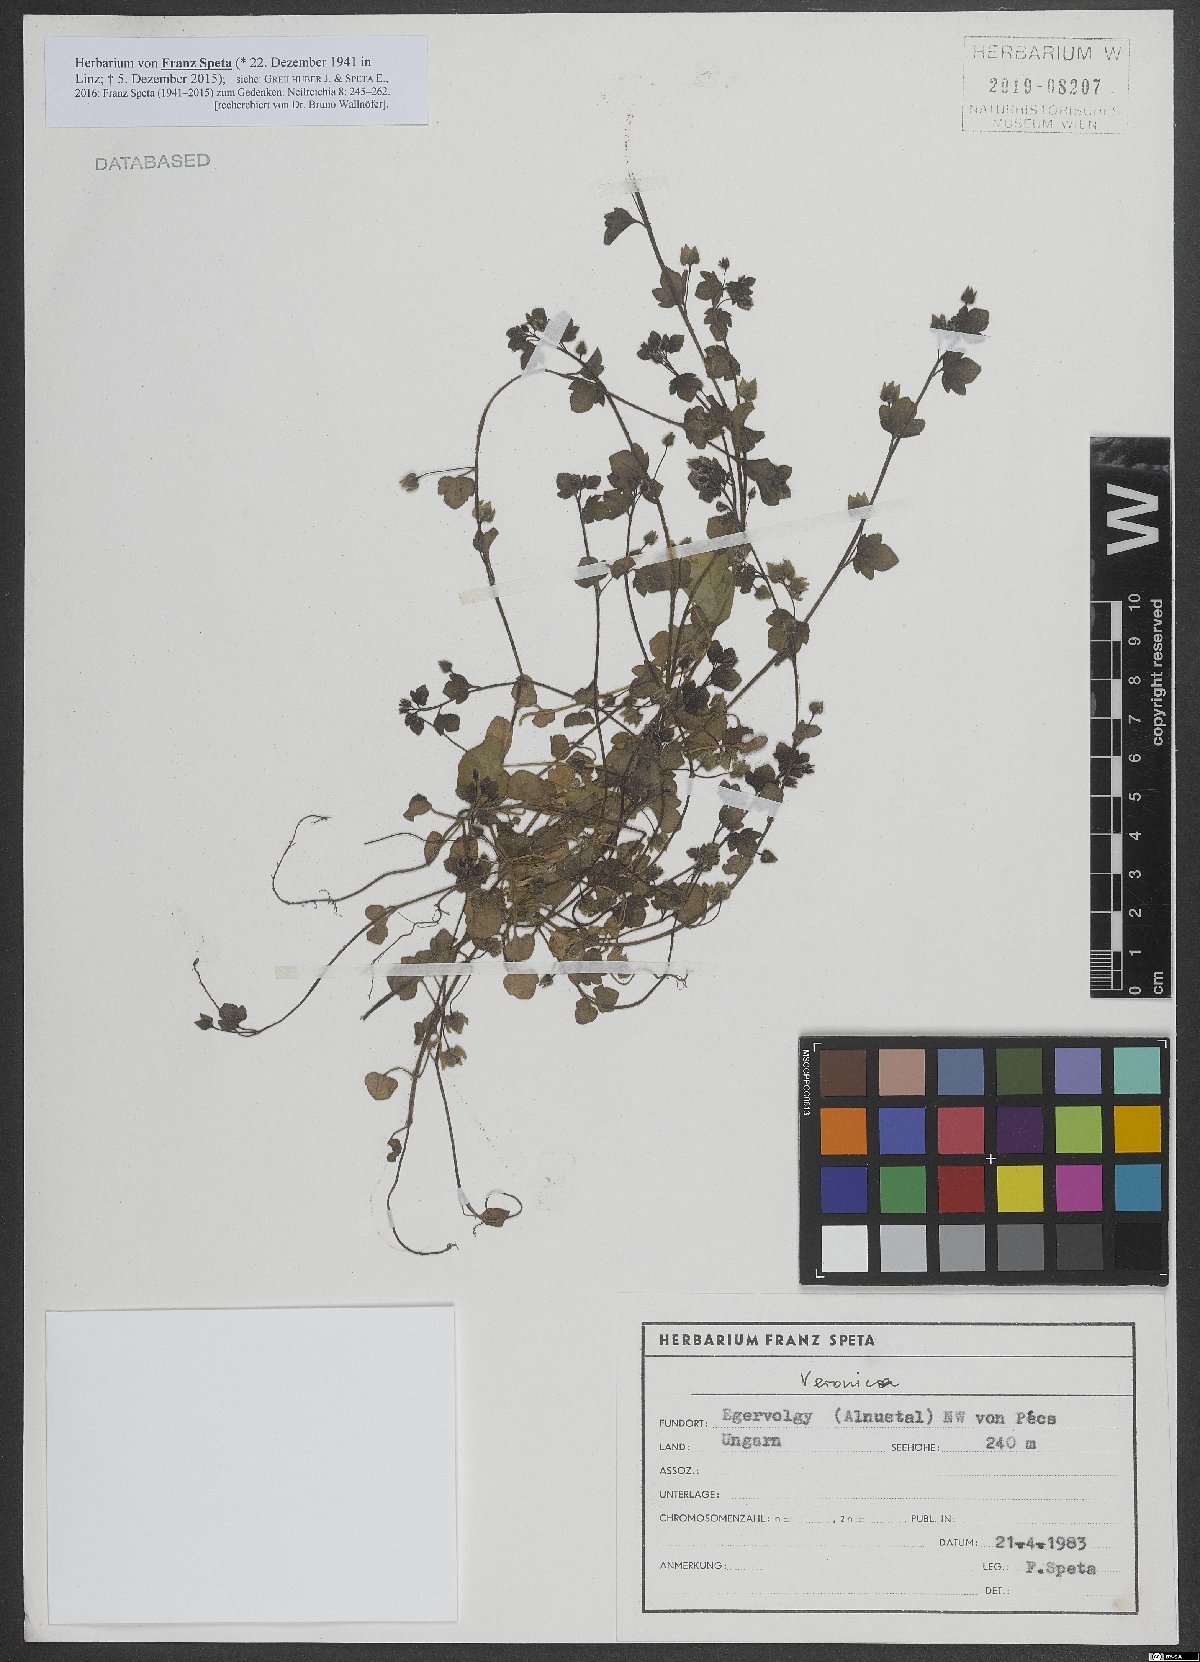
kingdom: Plantae
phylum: Tracheophyta
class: Magnoliopsida
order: Lamiales
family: Plantaginaceae
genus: Veronica
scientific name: Veronica
